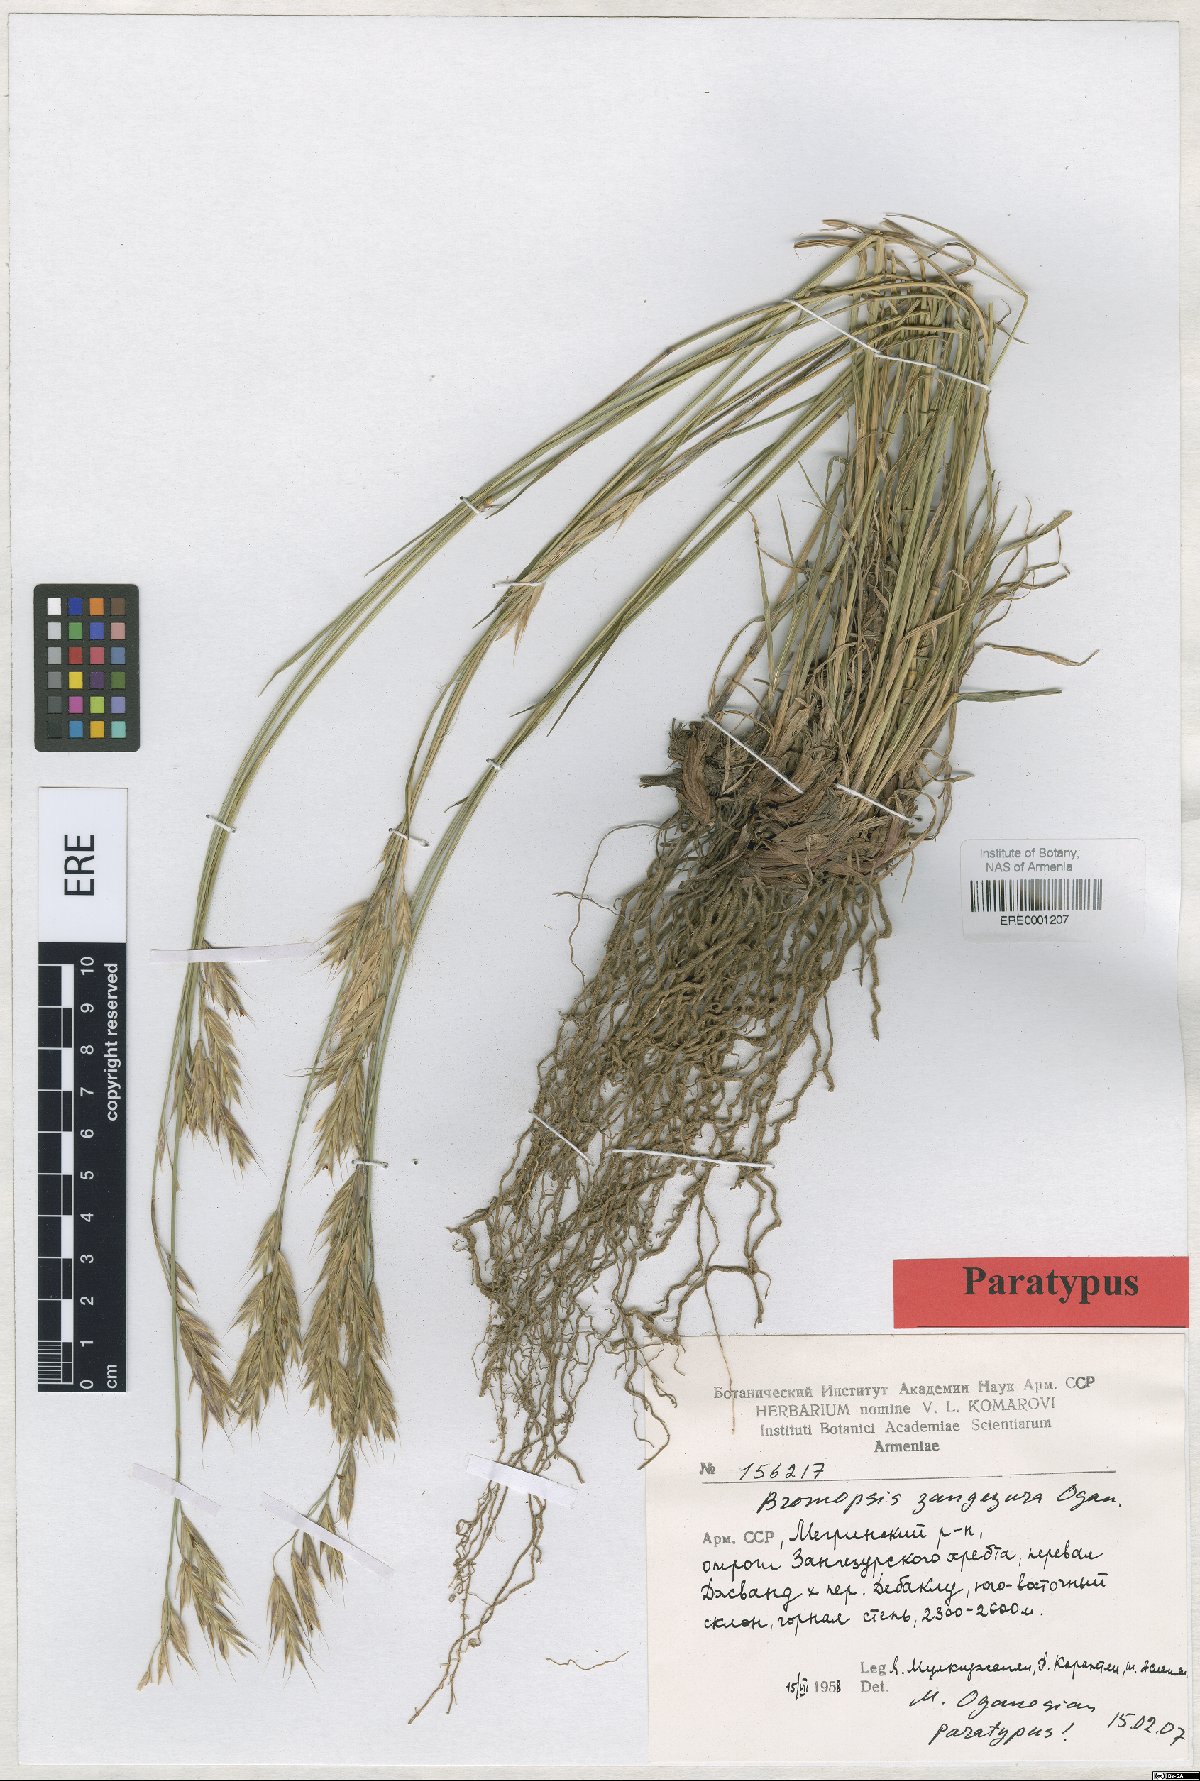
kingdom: Plantae
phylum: Tracheophyta
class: Liliopsida
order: Poales
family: Poaceae
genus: Bromus
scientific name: Bromus erectus
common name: Erect brome
